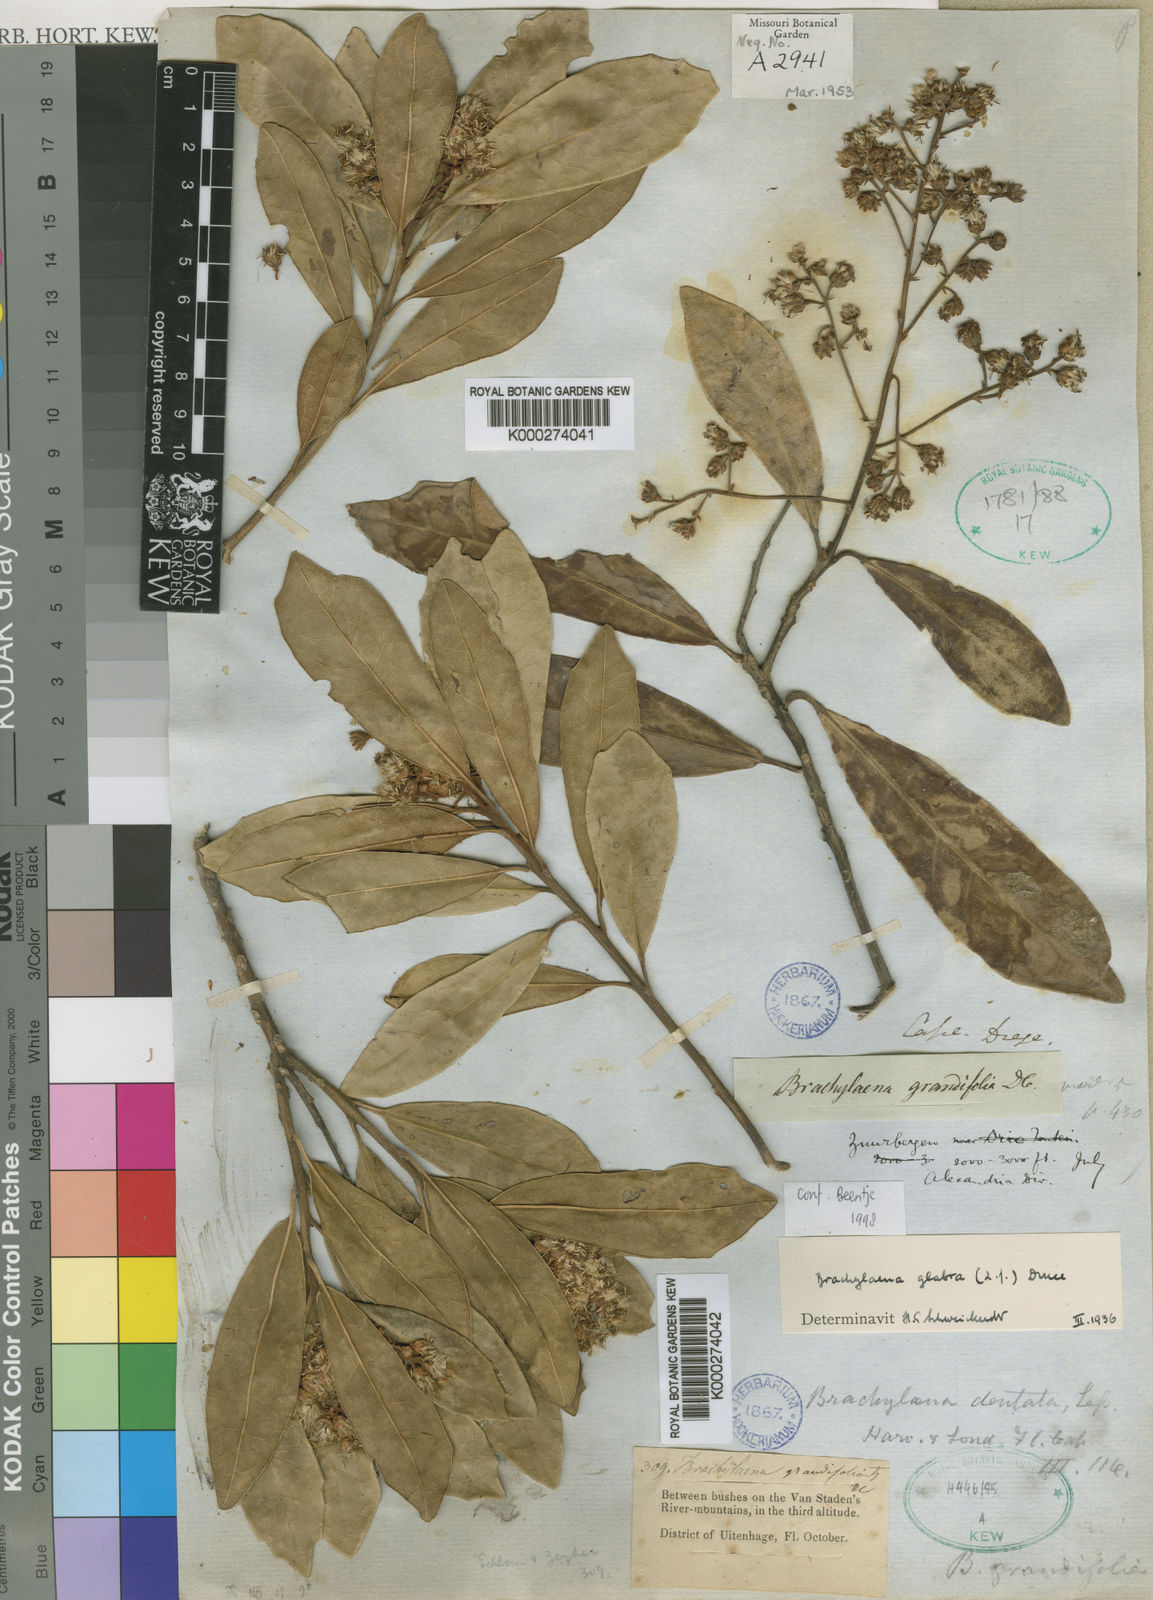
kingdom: Plantae
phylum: Tracheophyta
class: Magnoliopsida
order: Asterales
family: Asteraceae
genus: Brachylaena
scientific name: Brachylaena glabra
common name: Malabar silver-oak
